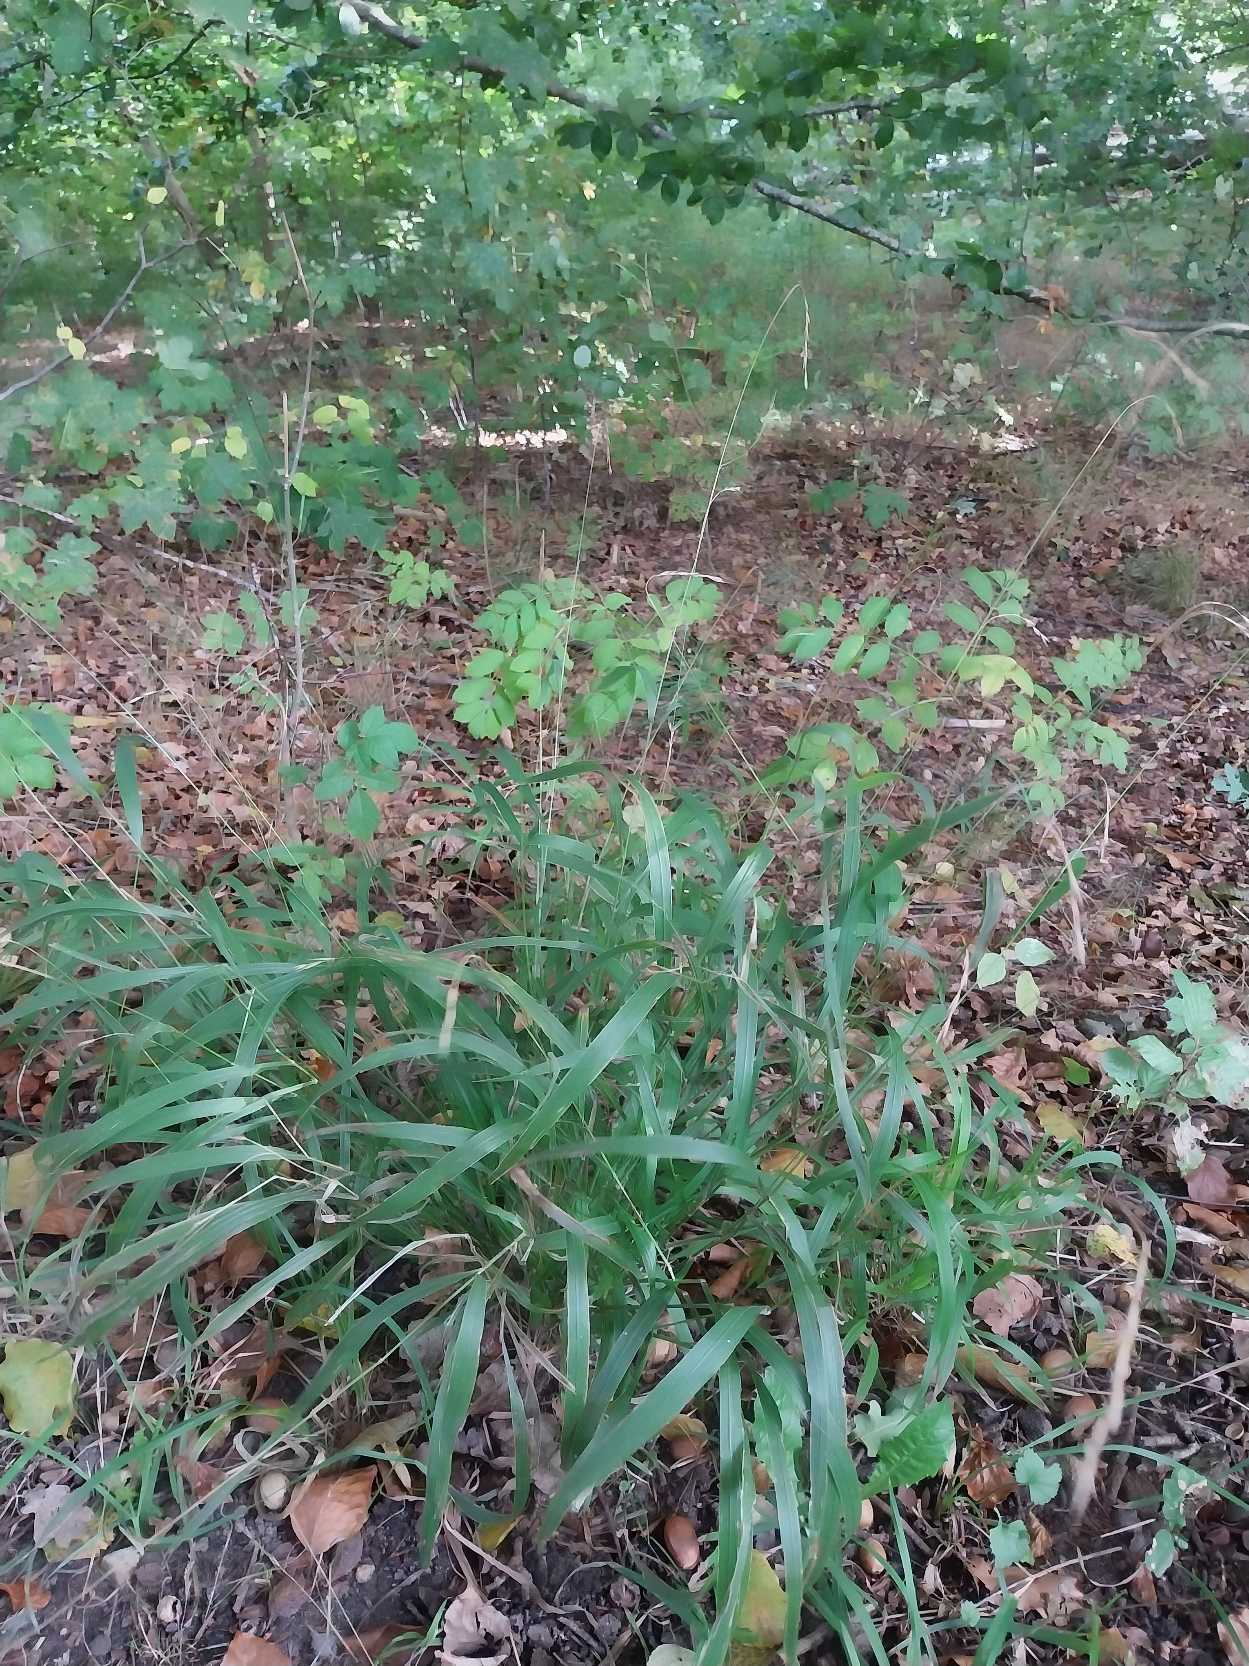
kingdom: Plantae
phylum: Tracheophyta
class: Liliopsida
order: Poales
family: Poaceae
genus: Brachypodium
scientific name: Brachypodium sylvaticum
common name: Skov-stilkaks
